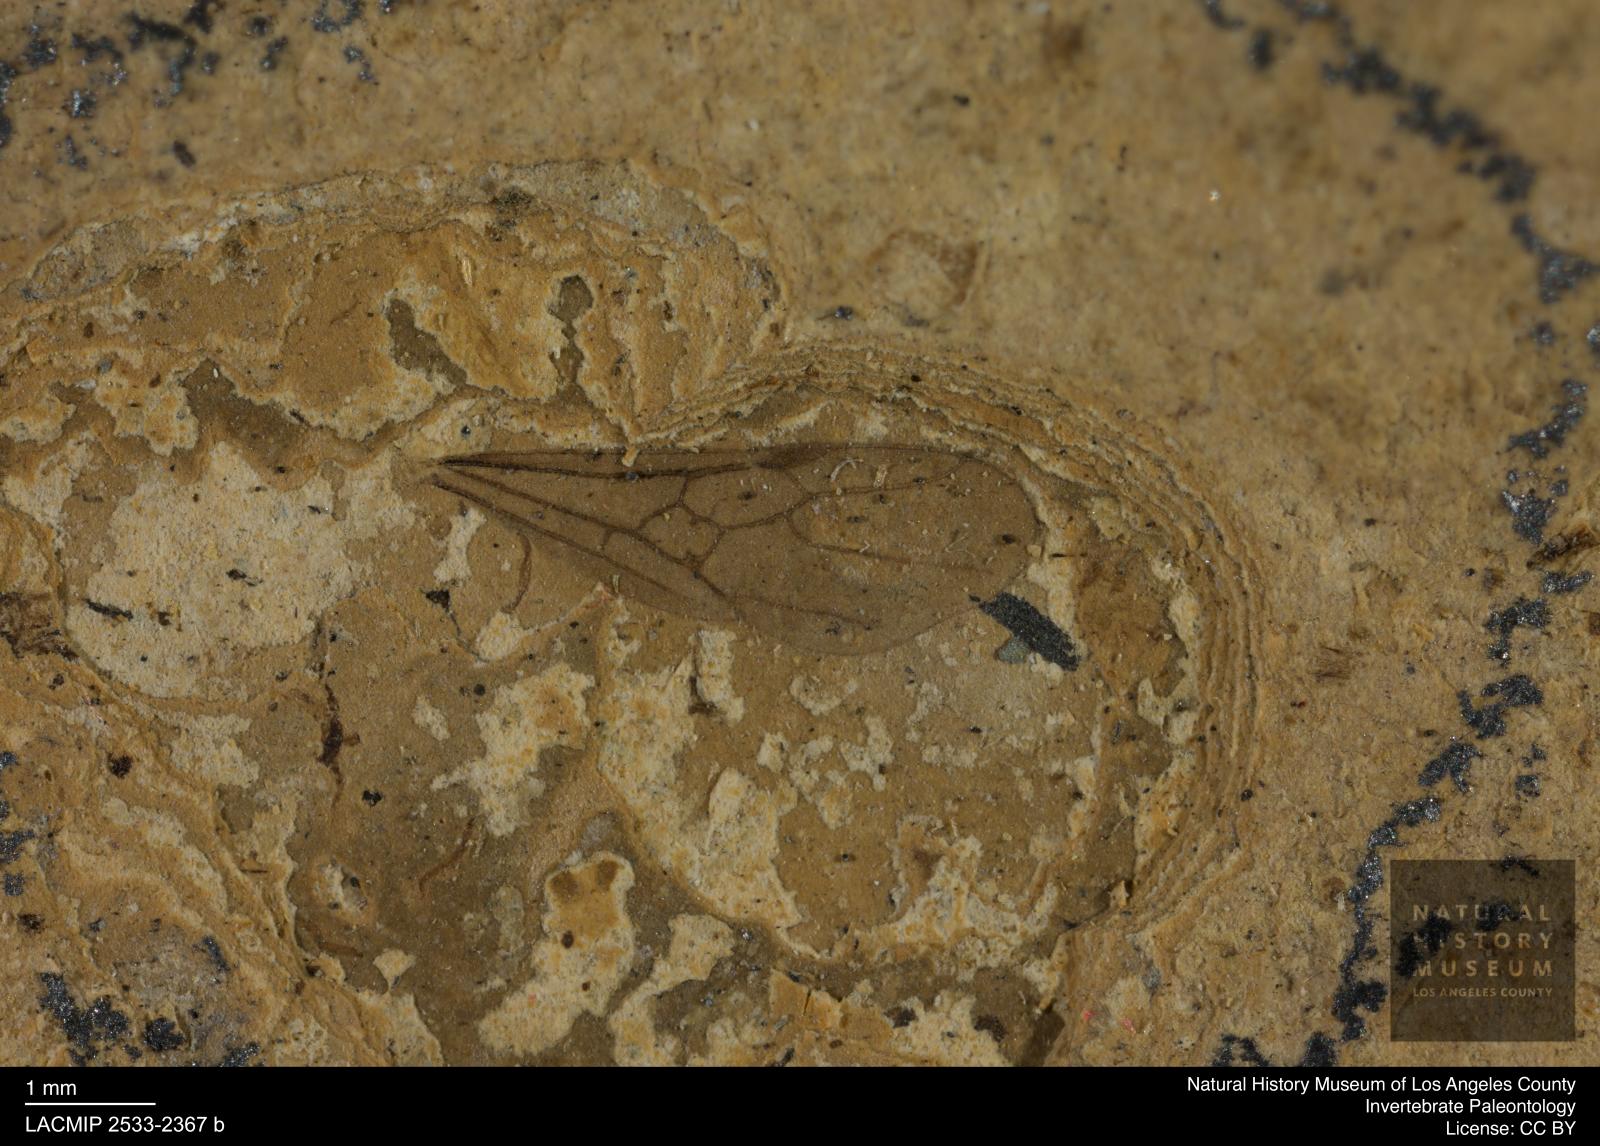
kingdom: Animalia
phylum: Arthropoda
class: Insecta
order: Hymenoptera
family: Formicidae
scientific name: Formicidae
